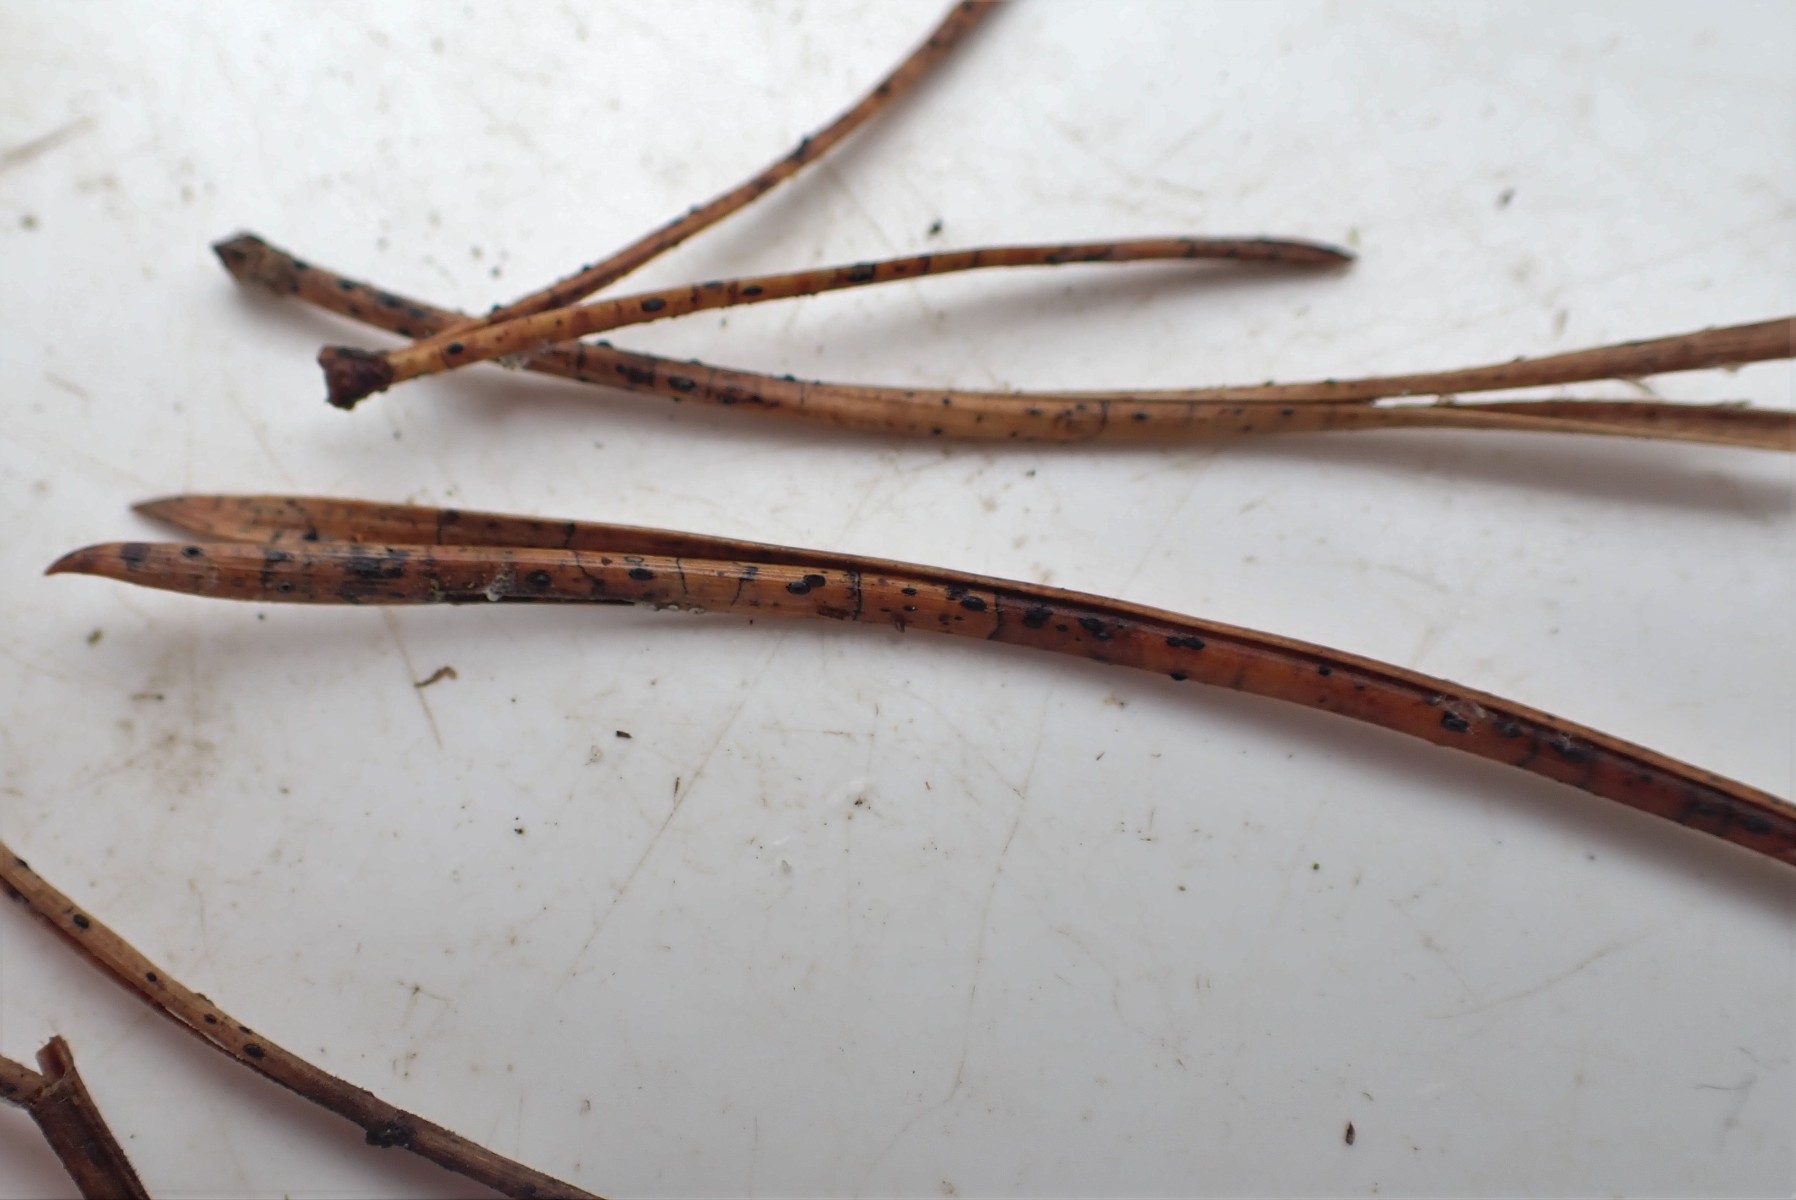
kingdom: Fungi
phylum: Ascomycota
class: Leotiomycetes
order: Rhytismatales
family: Rhytismataceae
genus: Lophodermium
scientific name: Lophodermium pinastri
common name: fyrre-fureplet
